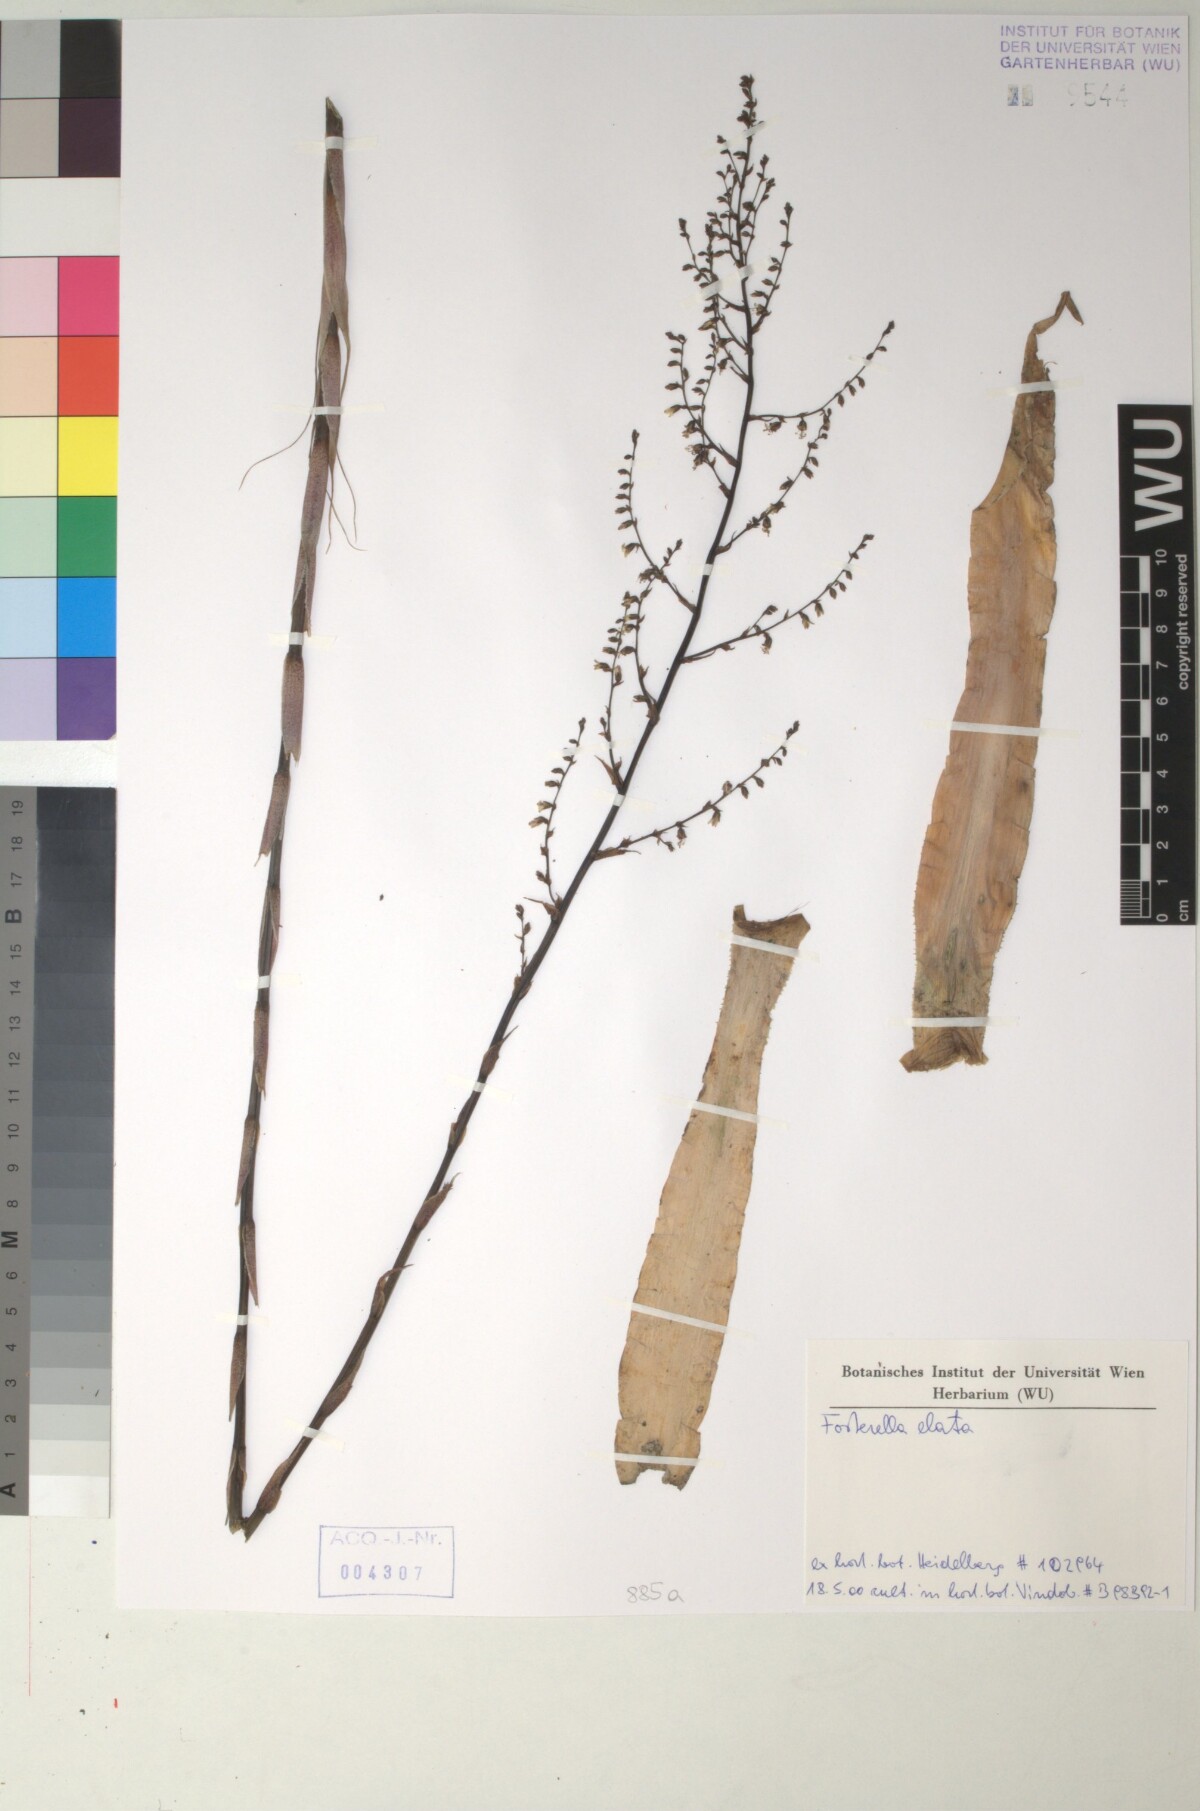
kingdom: Plantae
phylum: Tracheophyta
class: Liliopsida
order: Poales
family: Bromeliaceae
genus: Fosterella
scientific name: Fosterella rusbyi
